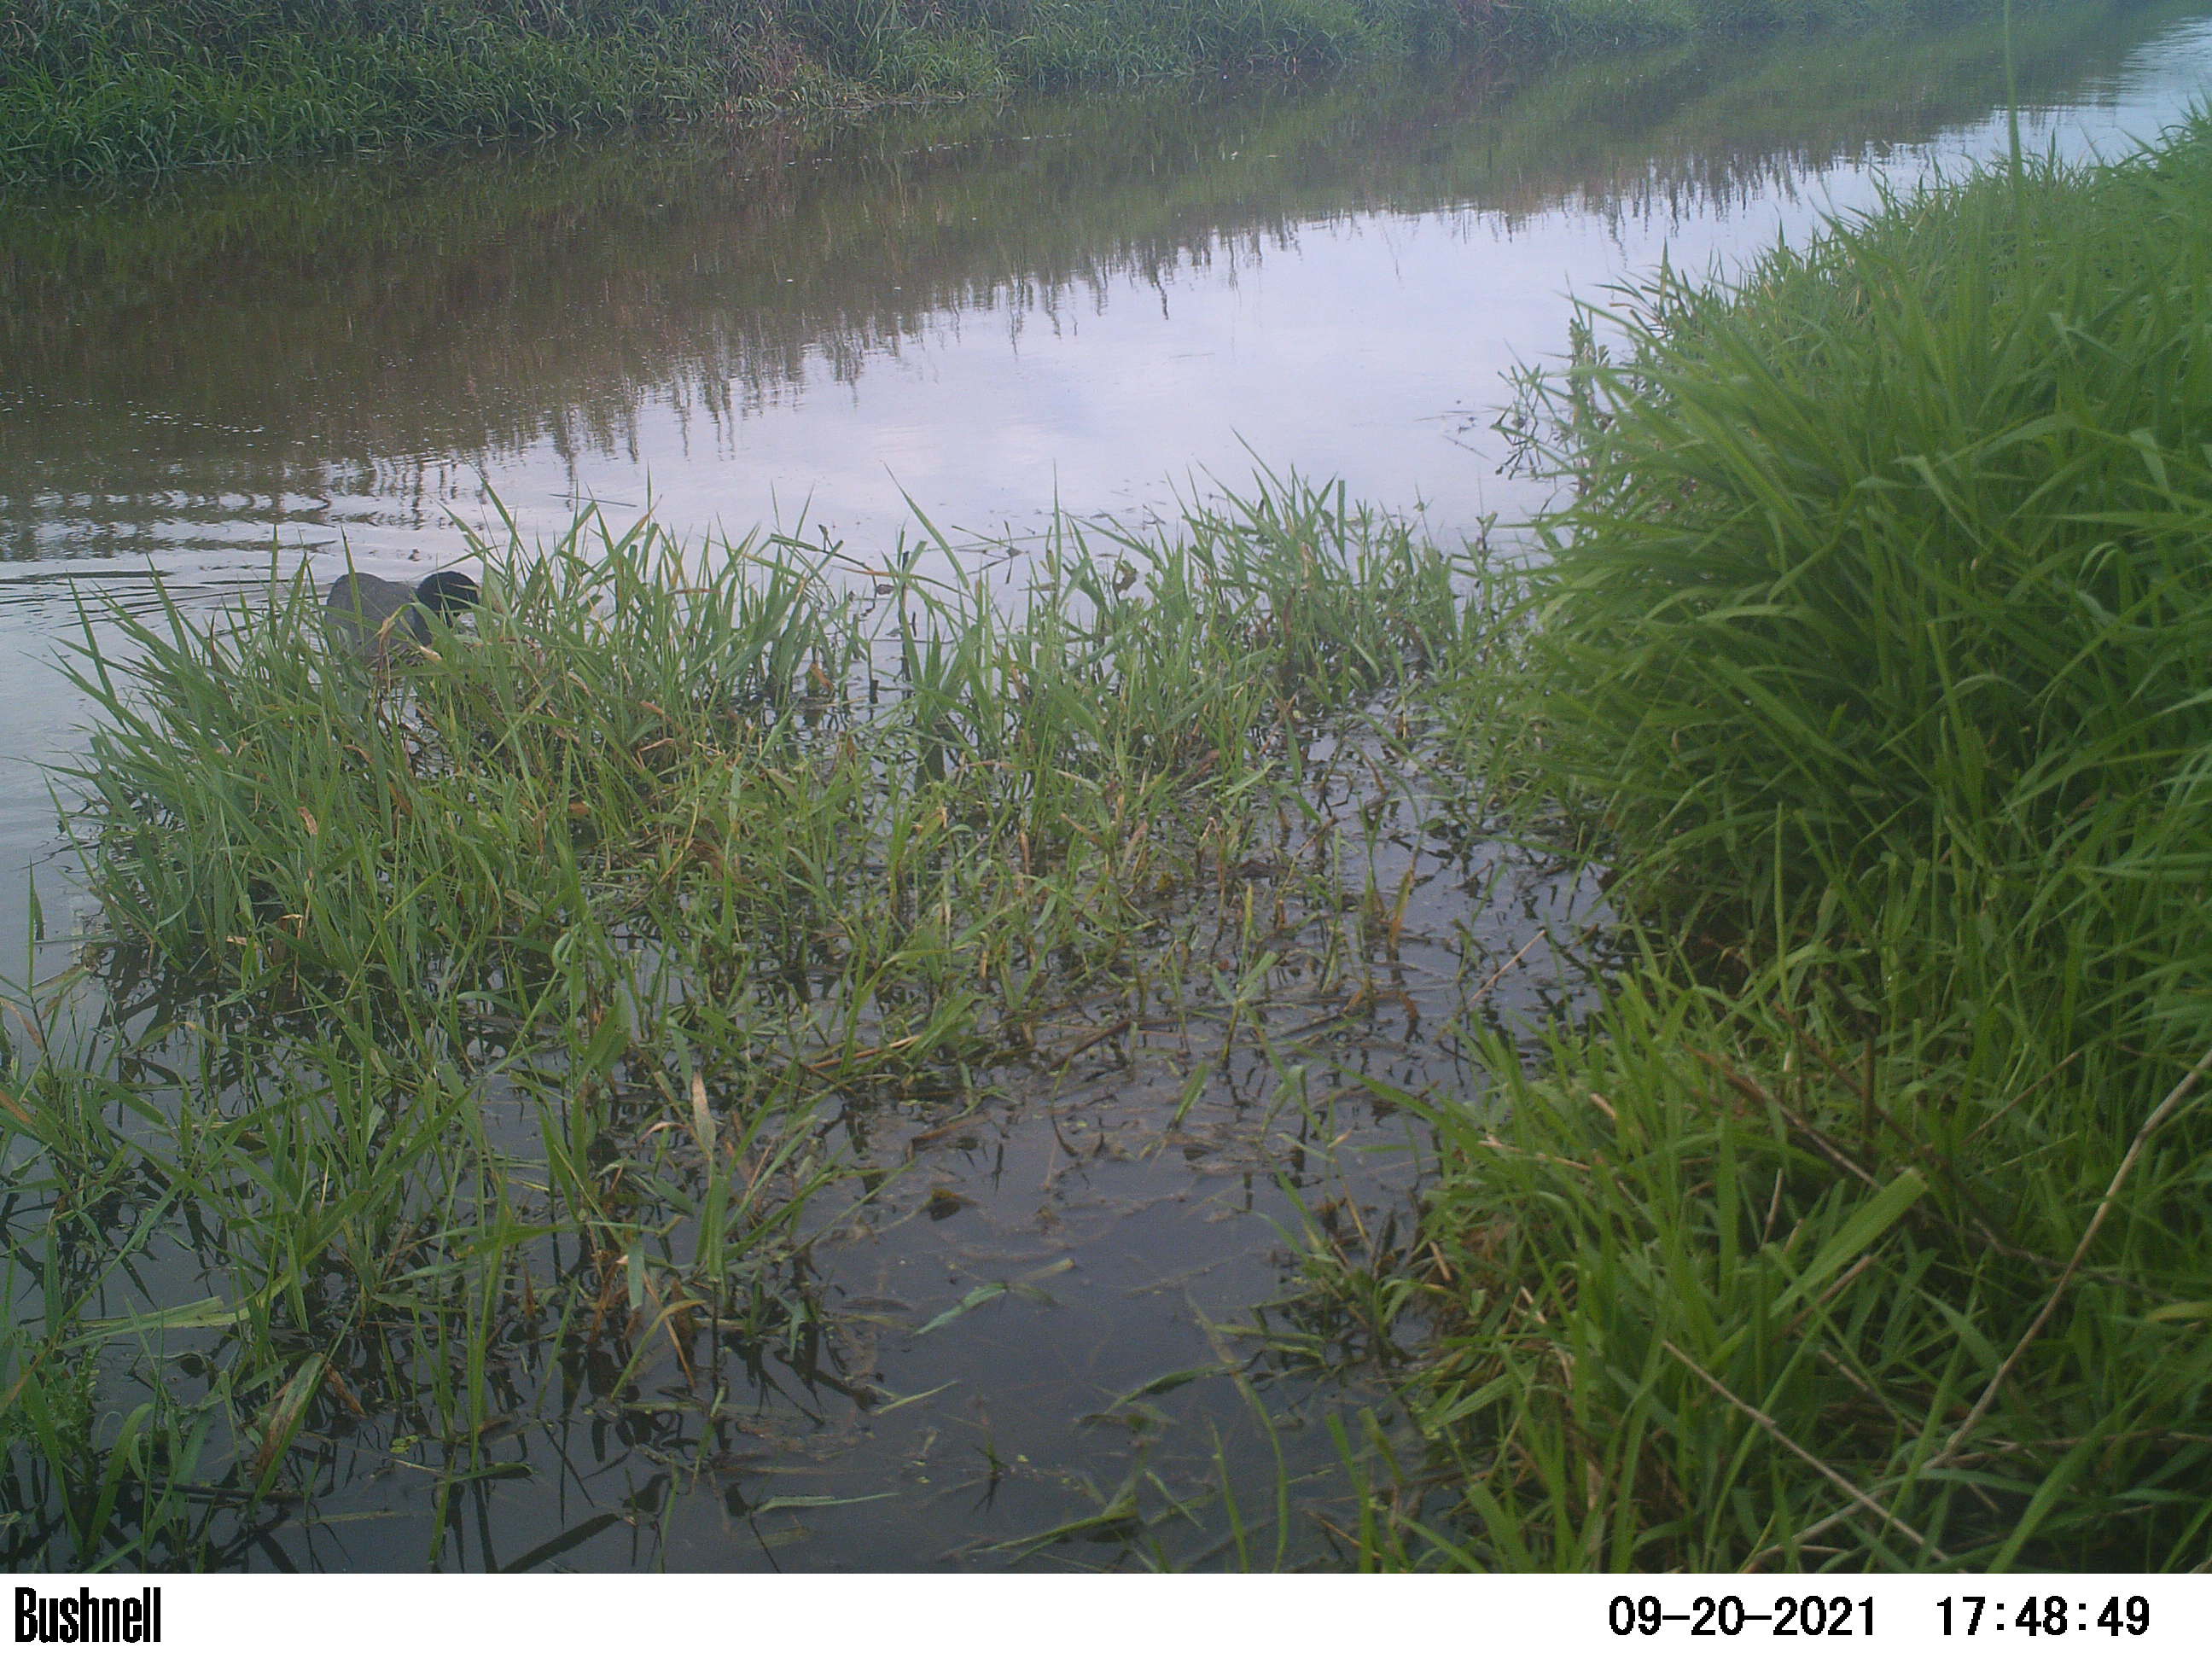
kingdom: Animalia
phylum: Chordata
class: Aves
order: Gruiformes
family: Rallidae
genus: Fulica
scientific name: Fulica atra
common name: Eurasian coot
